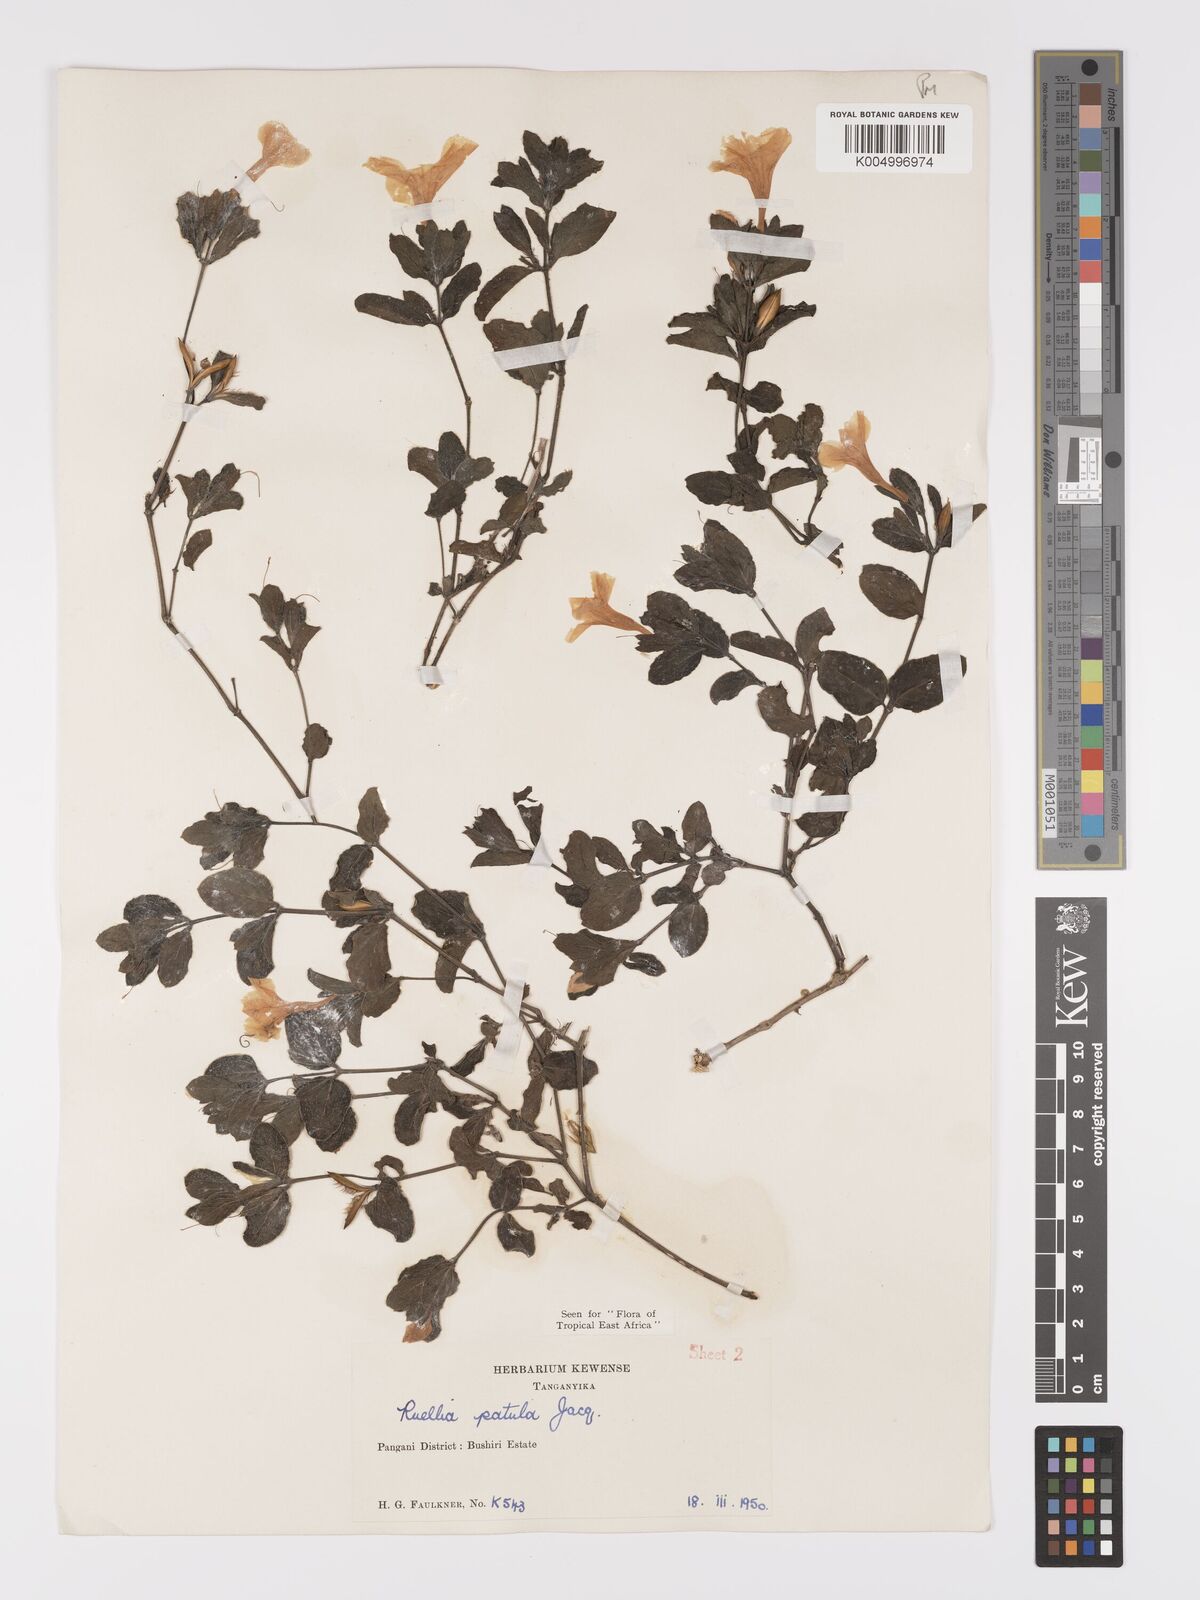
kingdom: Plantae
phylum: Tracheophyta
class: Magnoliopsida
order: Lamiales
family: Acanthaceae
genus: Ruellia
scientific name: Ruellia patula
